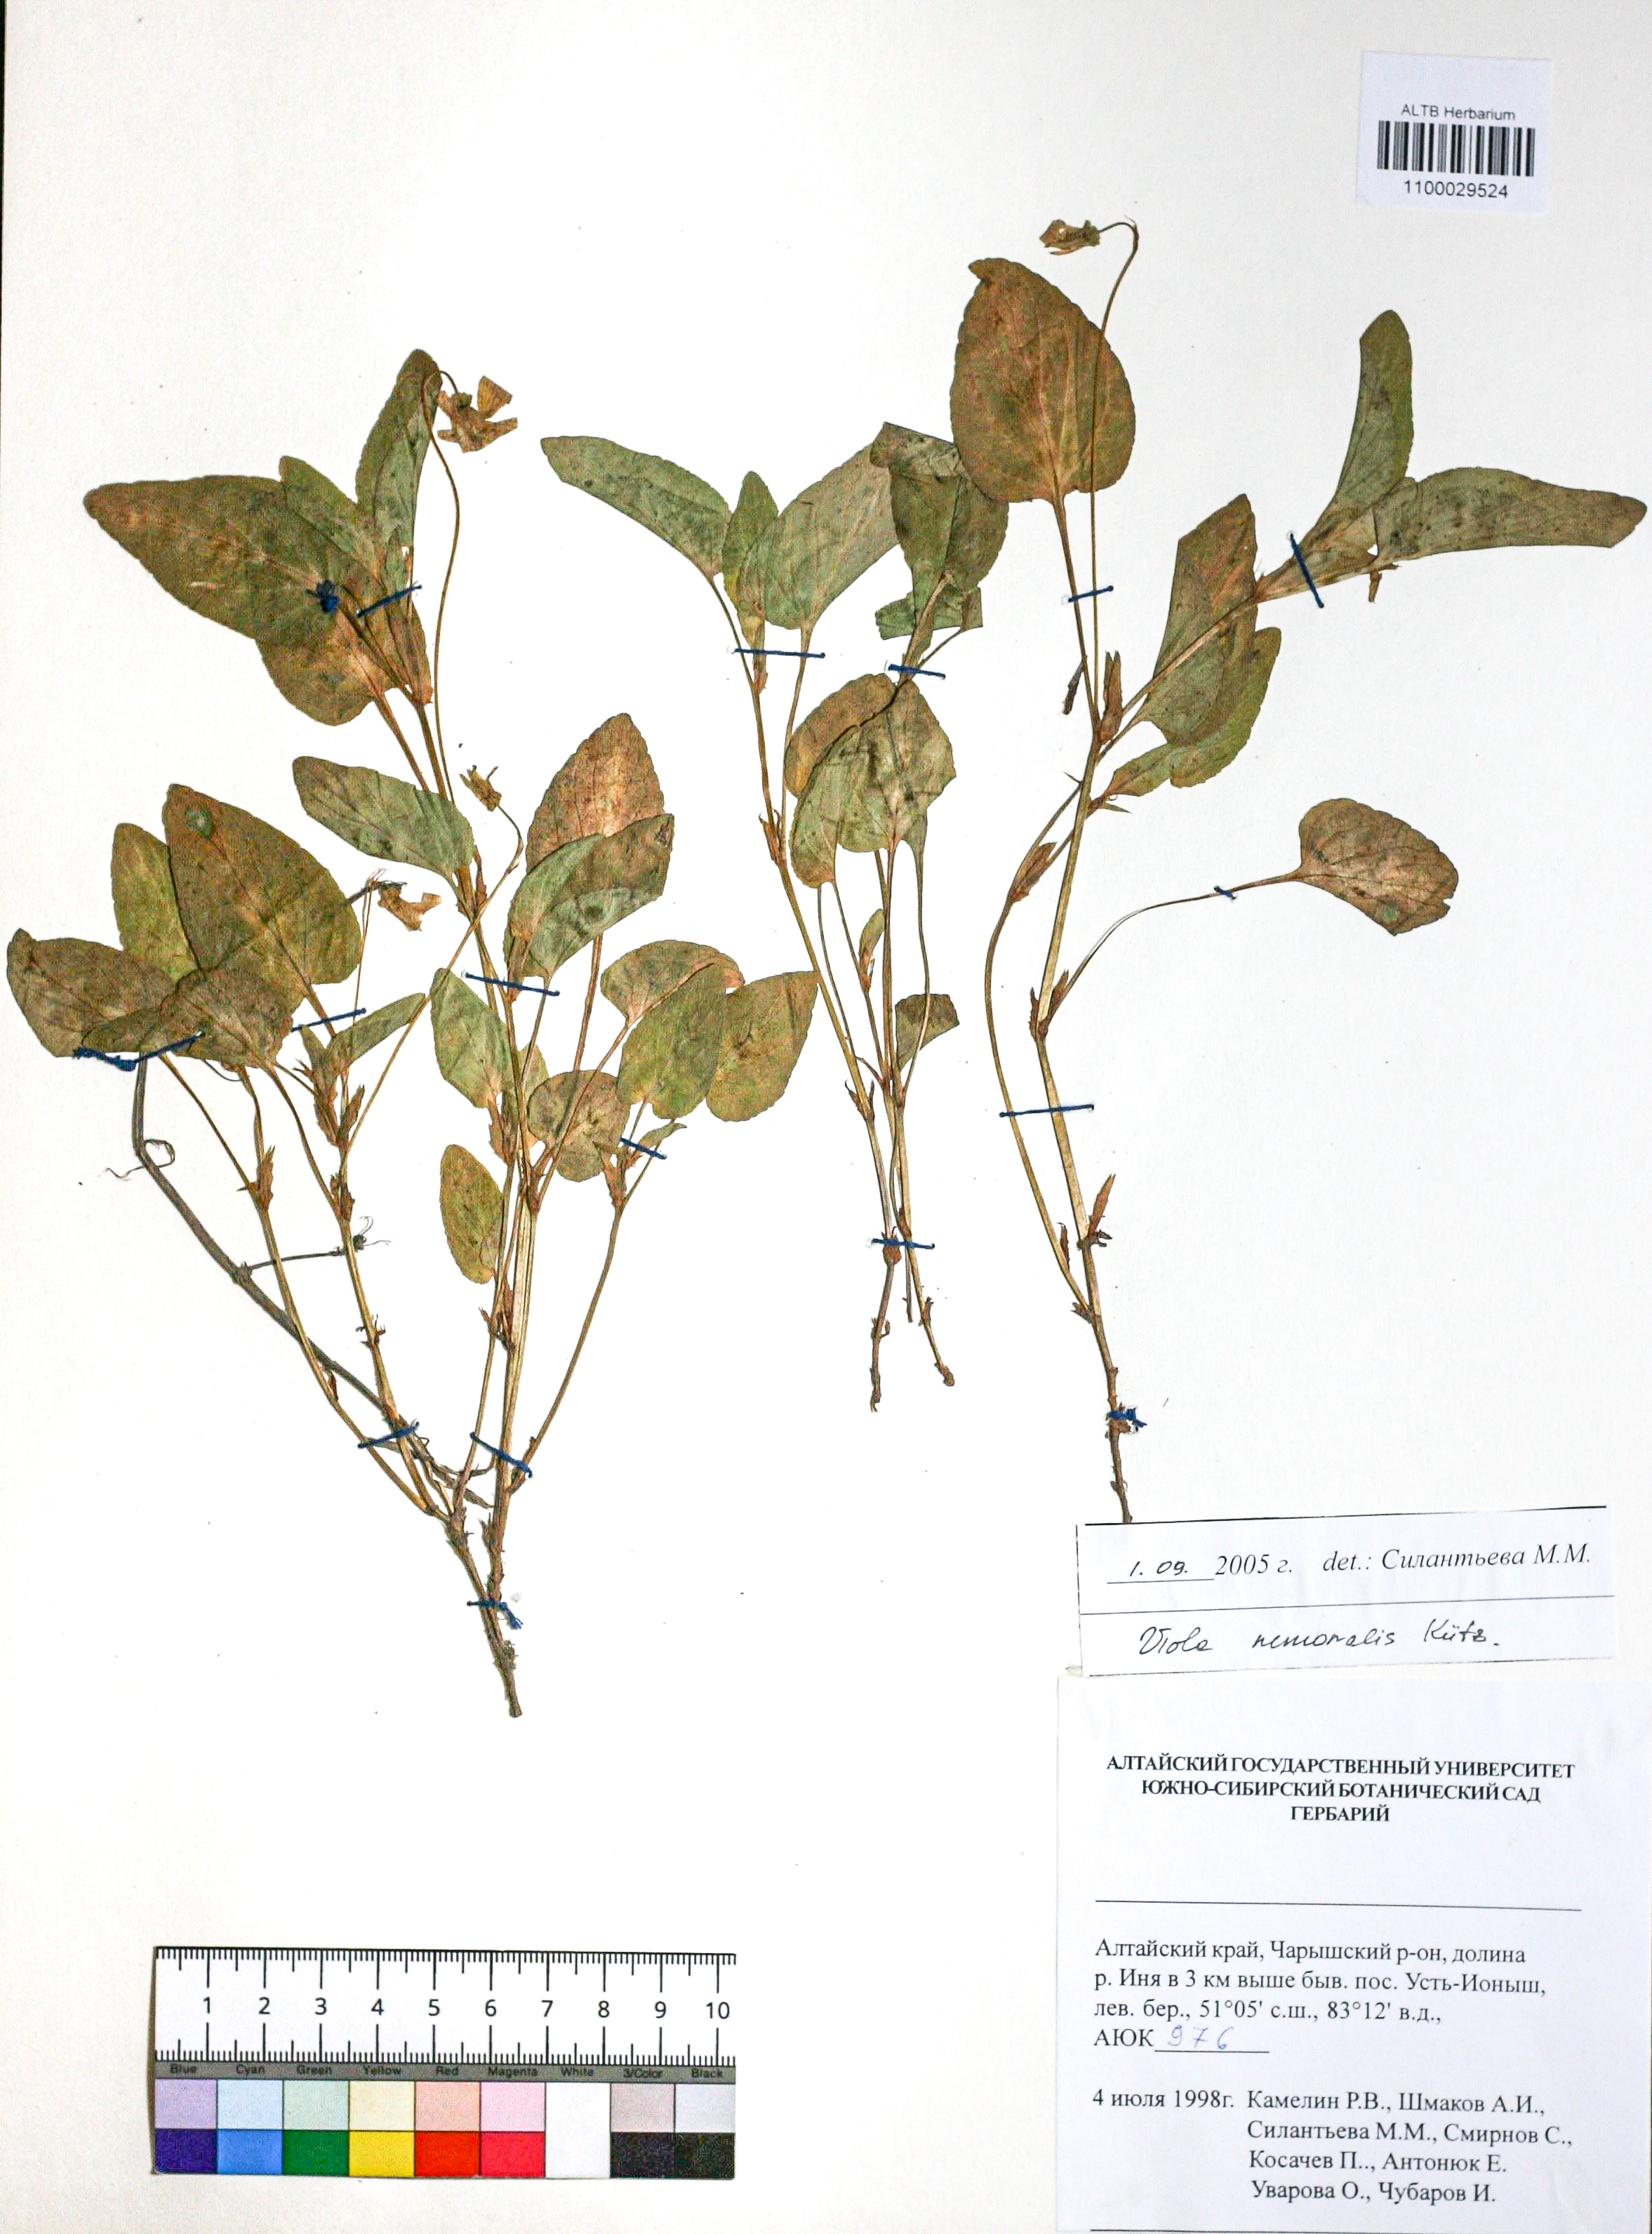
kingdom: Plantae
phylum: Tracheophyta
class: Magnoliopsida
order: Malpighiales
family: Violaceae
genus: Viola
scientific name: Viola ruppii
